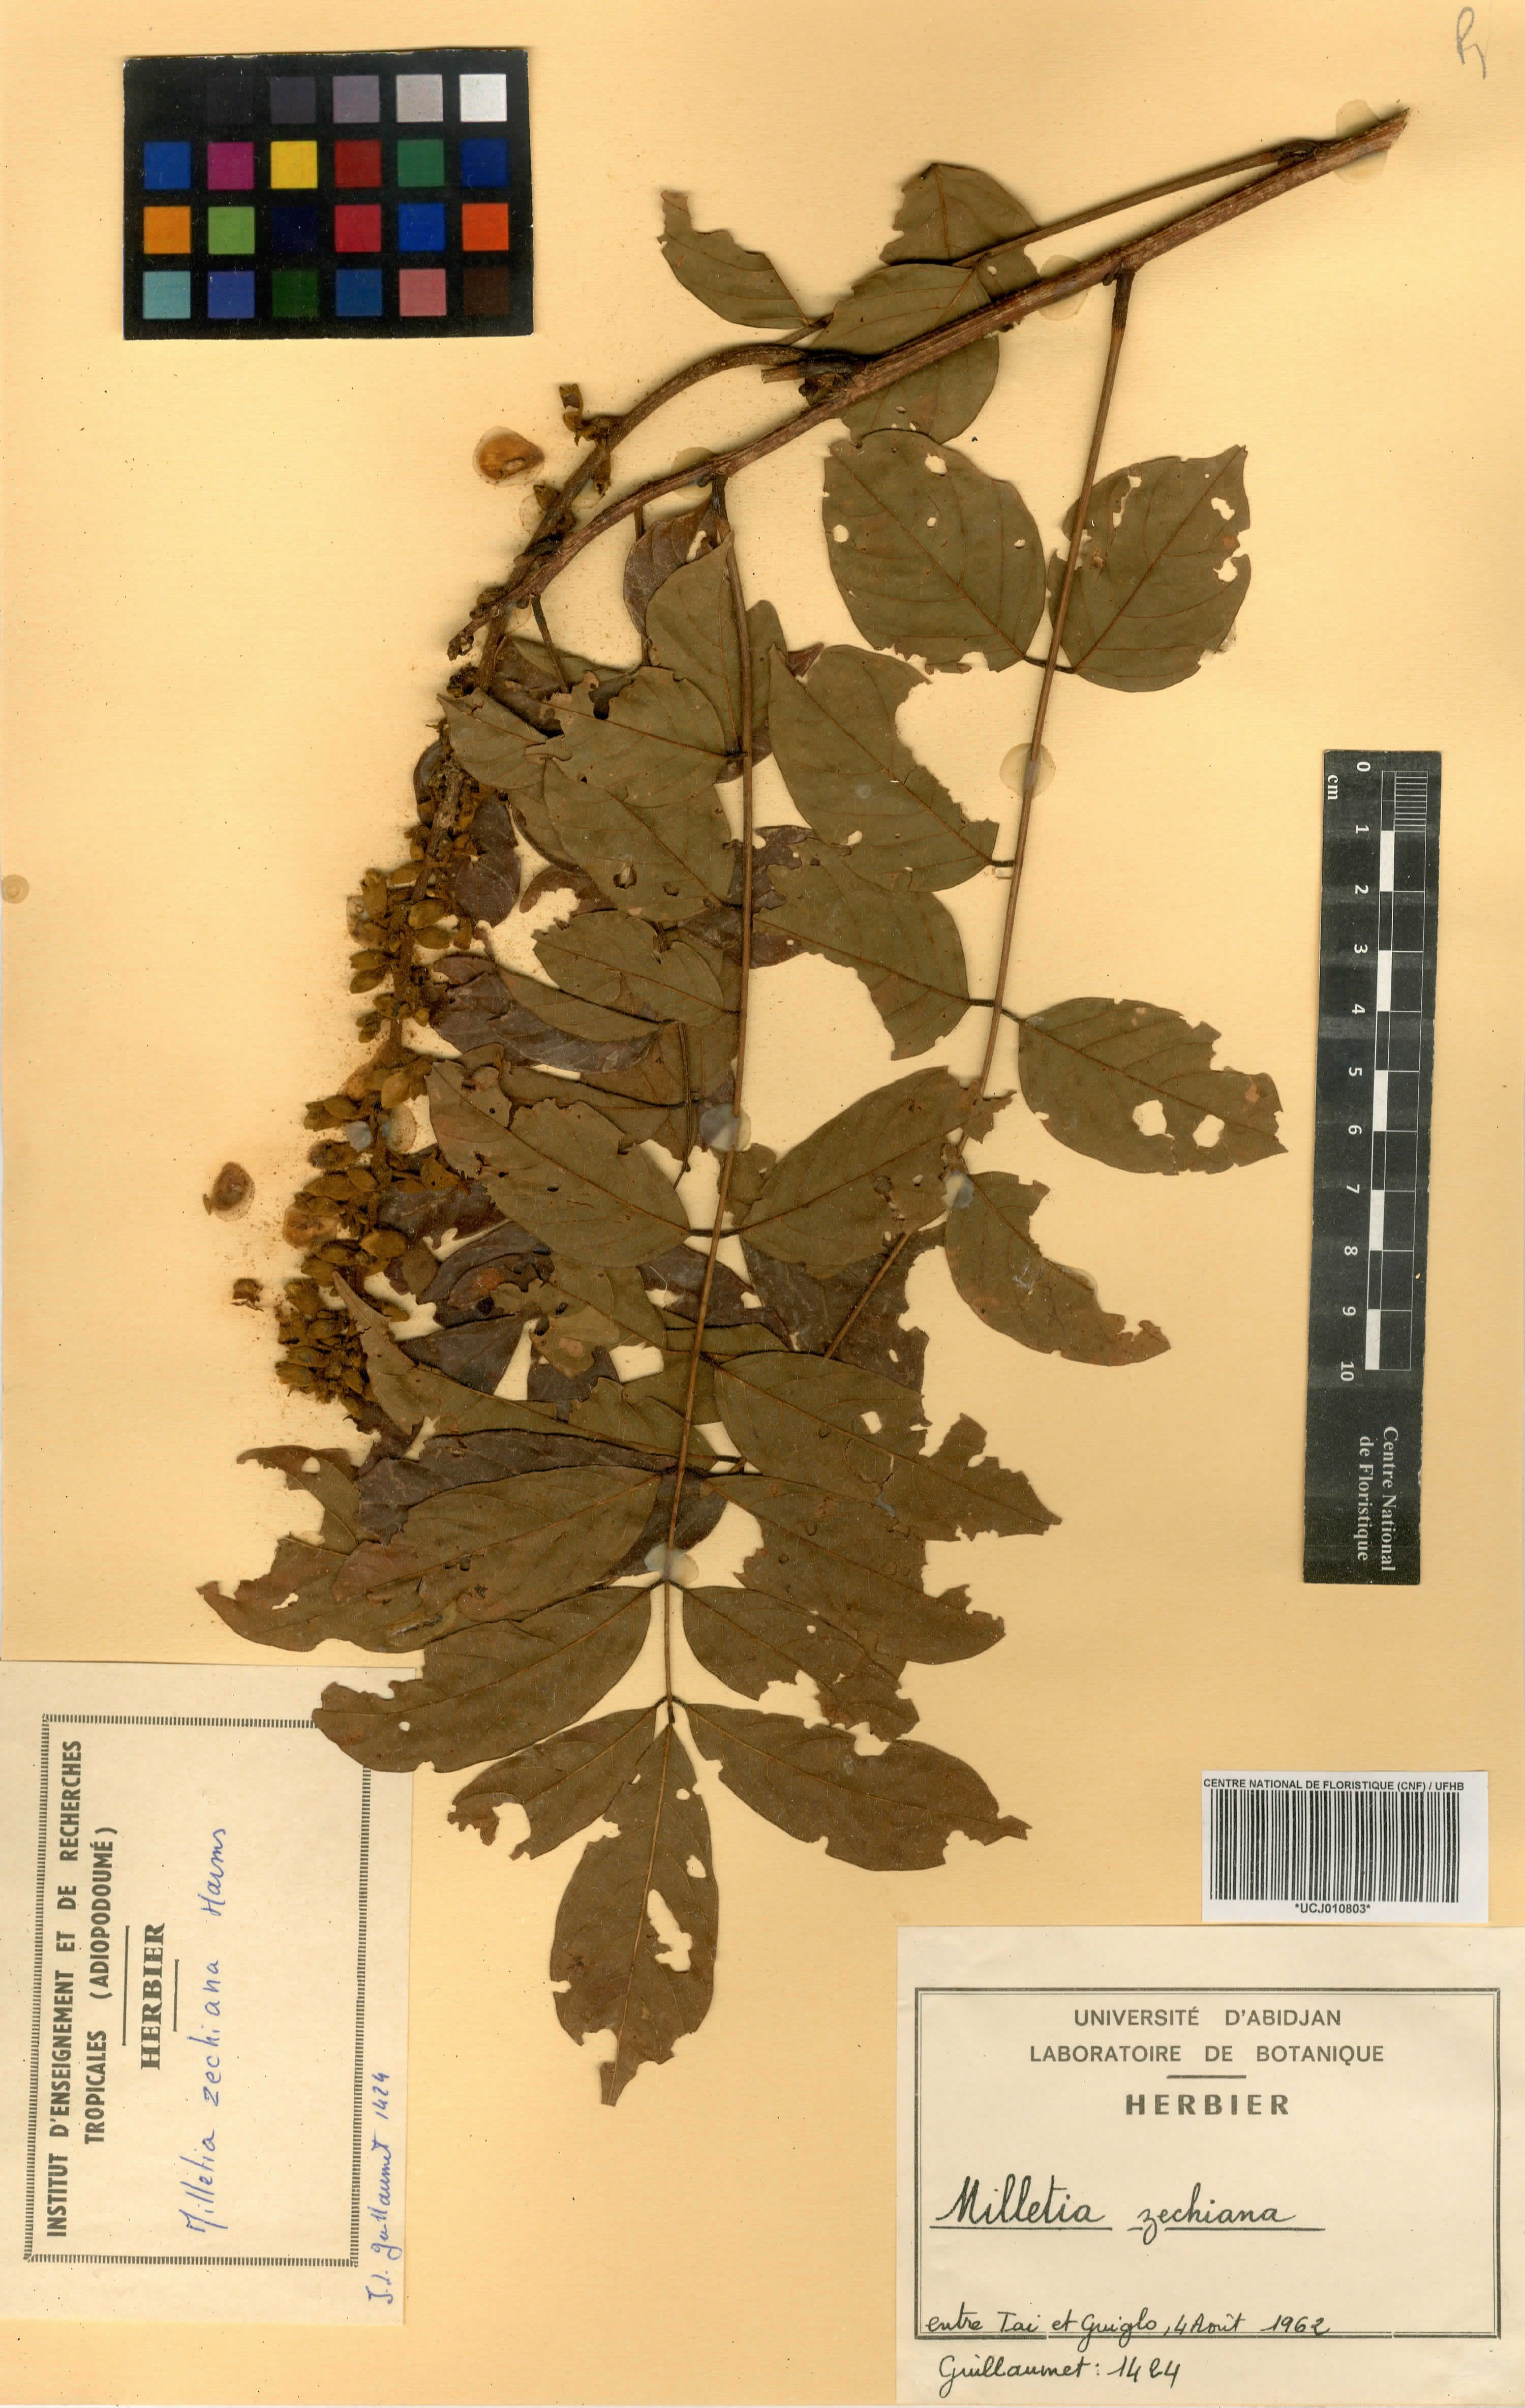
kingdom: Plantae
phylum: Tracheophyta
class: Magnoliopsida
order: Fabales
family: Fabaceae
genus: Millettia
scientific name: Millettia zechiana
